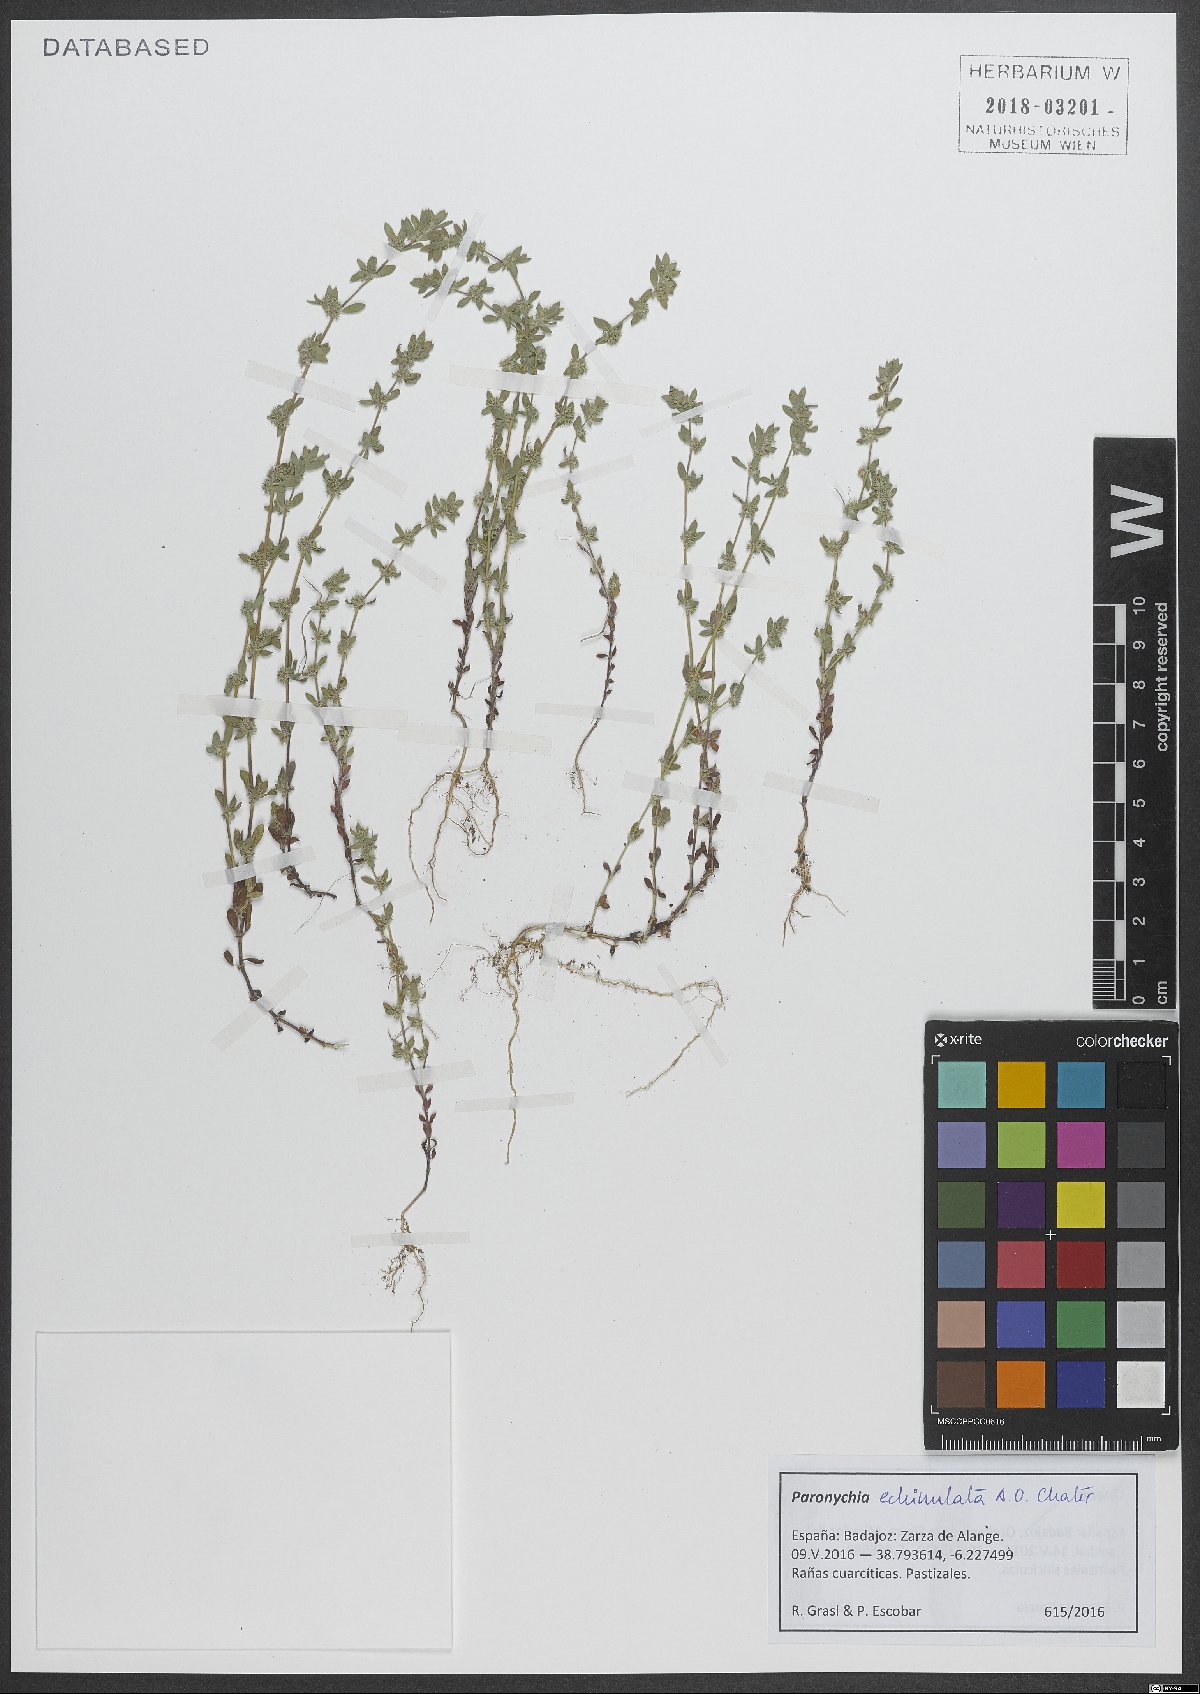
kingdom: Plantae
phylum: Tracheophyta
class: Magnoliopsida
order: Caryophyllales
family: Caryophyllaceae
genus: Paronychia
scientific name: Paronychia echinulata
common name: Eurasian nailwort
